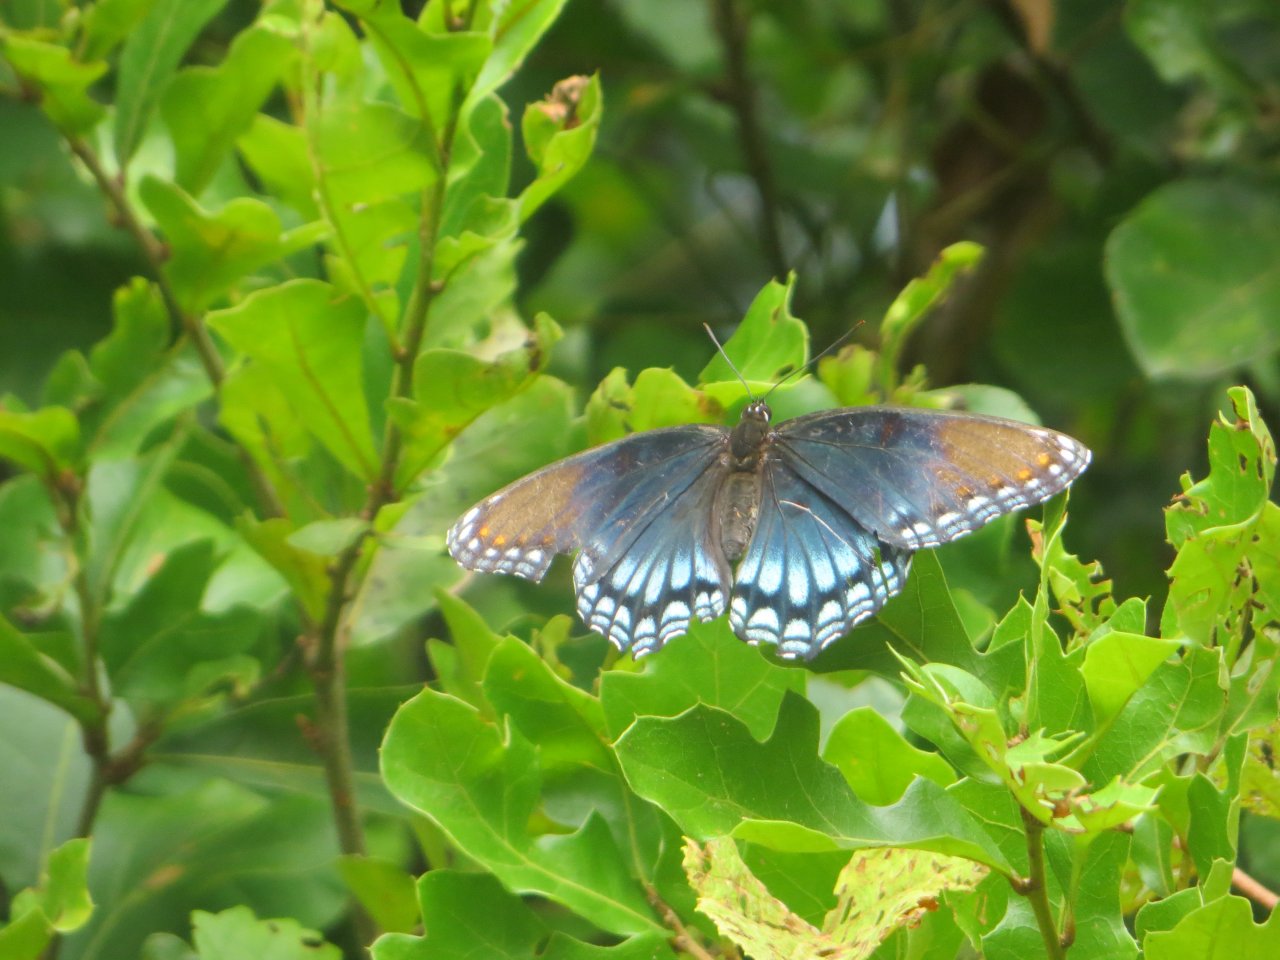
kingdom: Animalia
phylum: Arthropoda
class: Insecta
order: Lepidoptera
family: Nymphalidae
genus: Limenitis
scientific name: Limenitis astyanax
